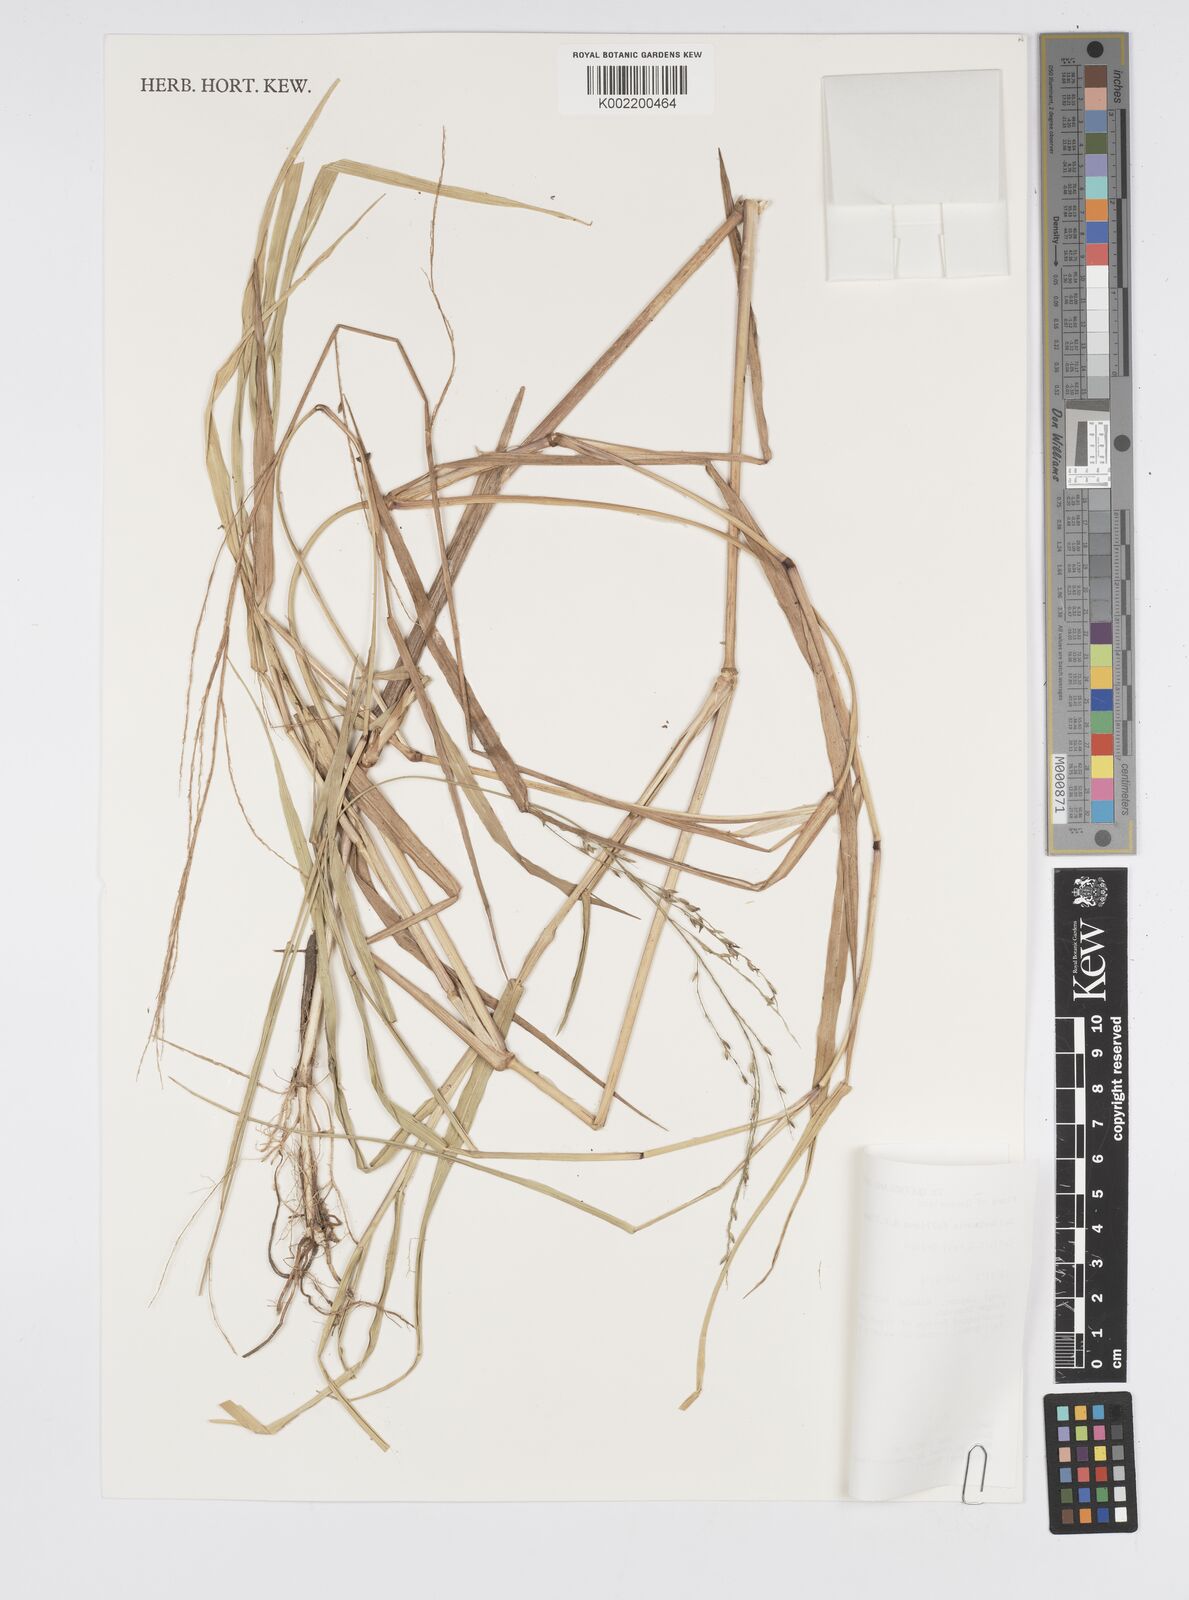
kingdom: Plantae
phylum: Tracheophyta
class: Liliopsida
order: Poales
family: Poaceae
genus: Hymenachne
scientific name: Hymenachne felliana
